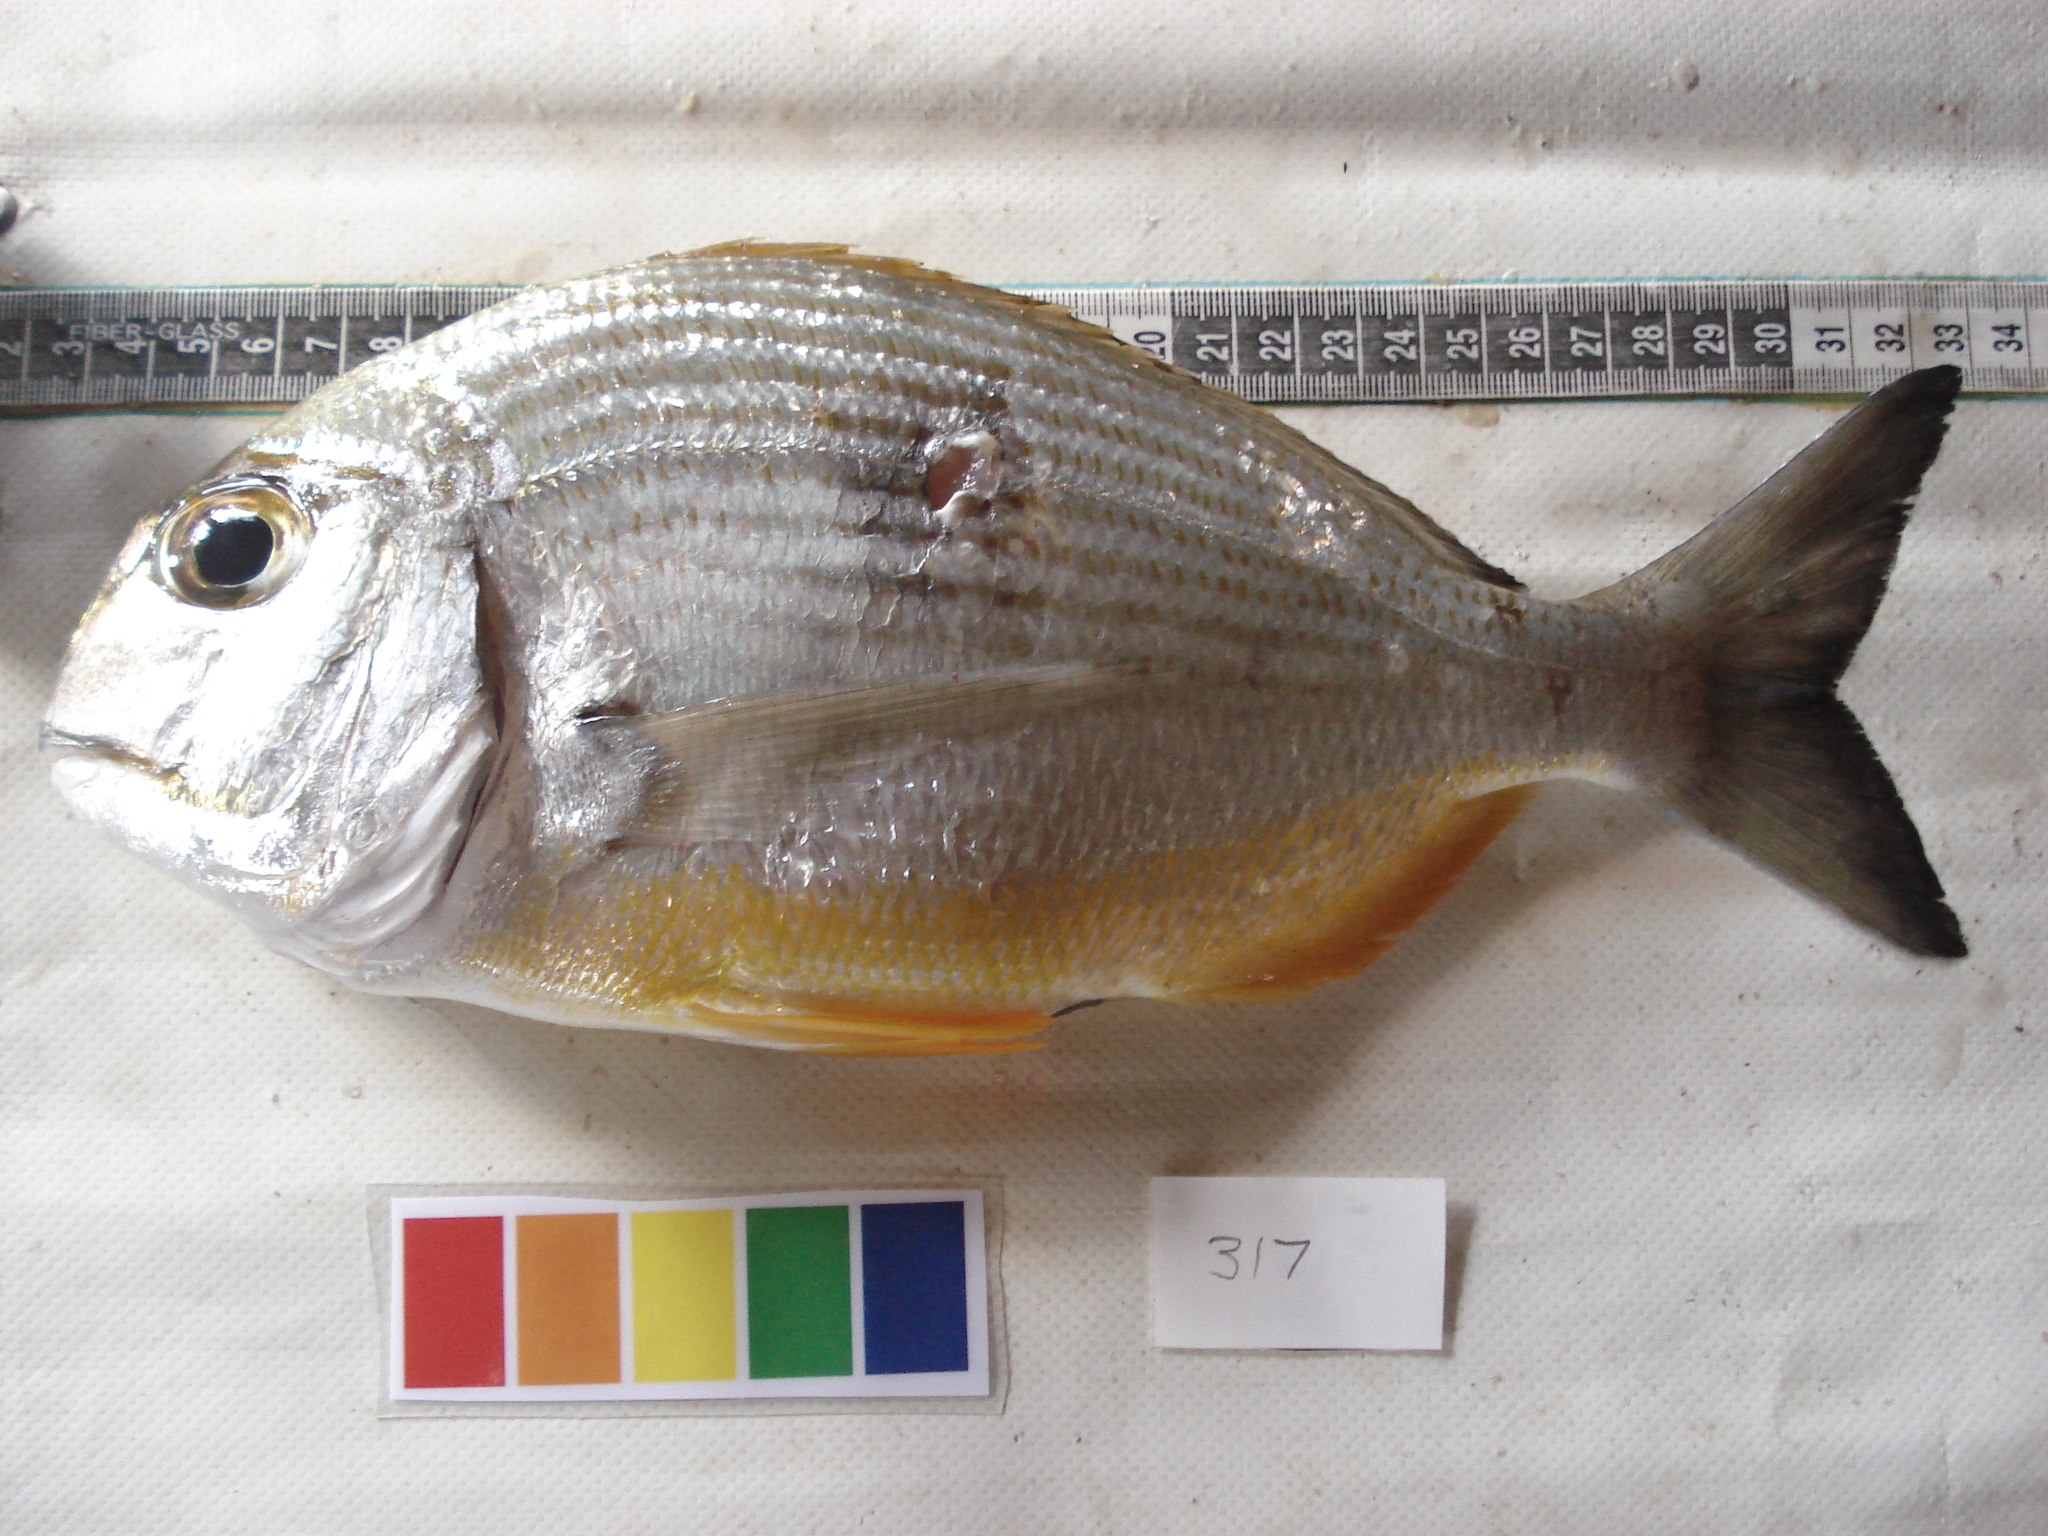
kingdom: Animalia
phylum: Chordata
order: Perciformes
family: Sparidae
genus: Rhabdosargus
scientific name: Rhabdosargus thorpei
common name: Bigeye stumpnose
